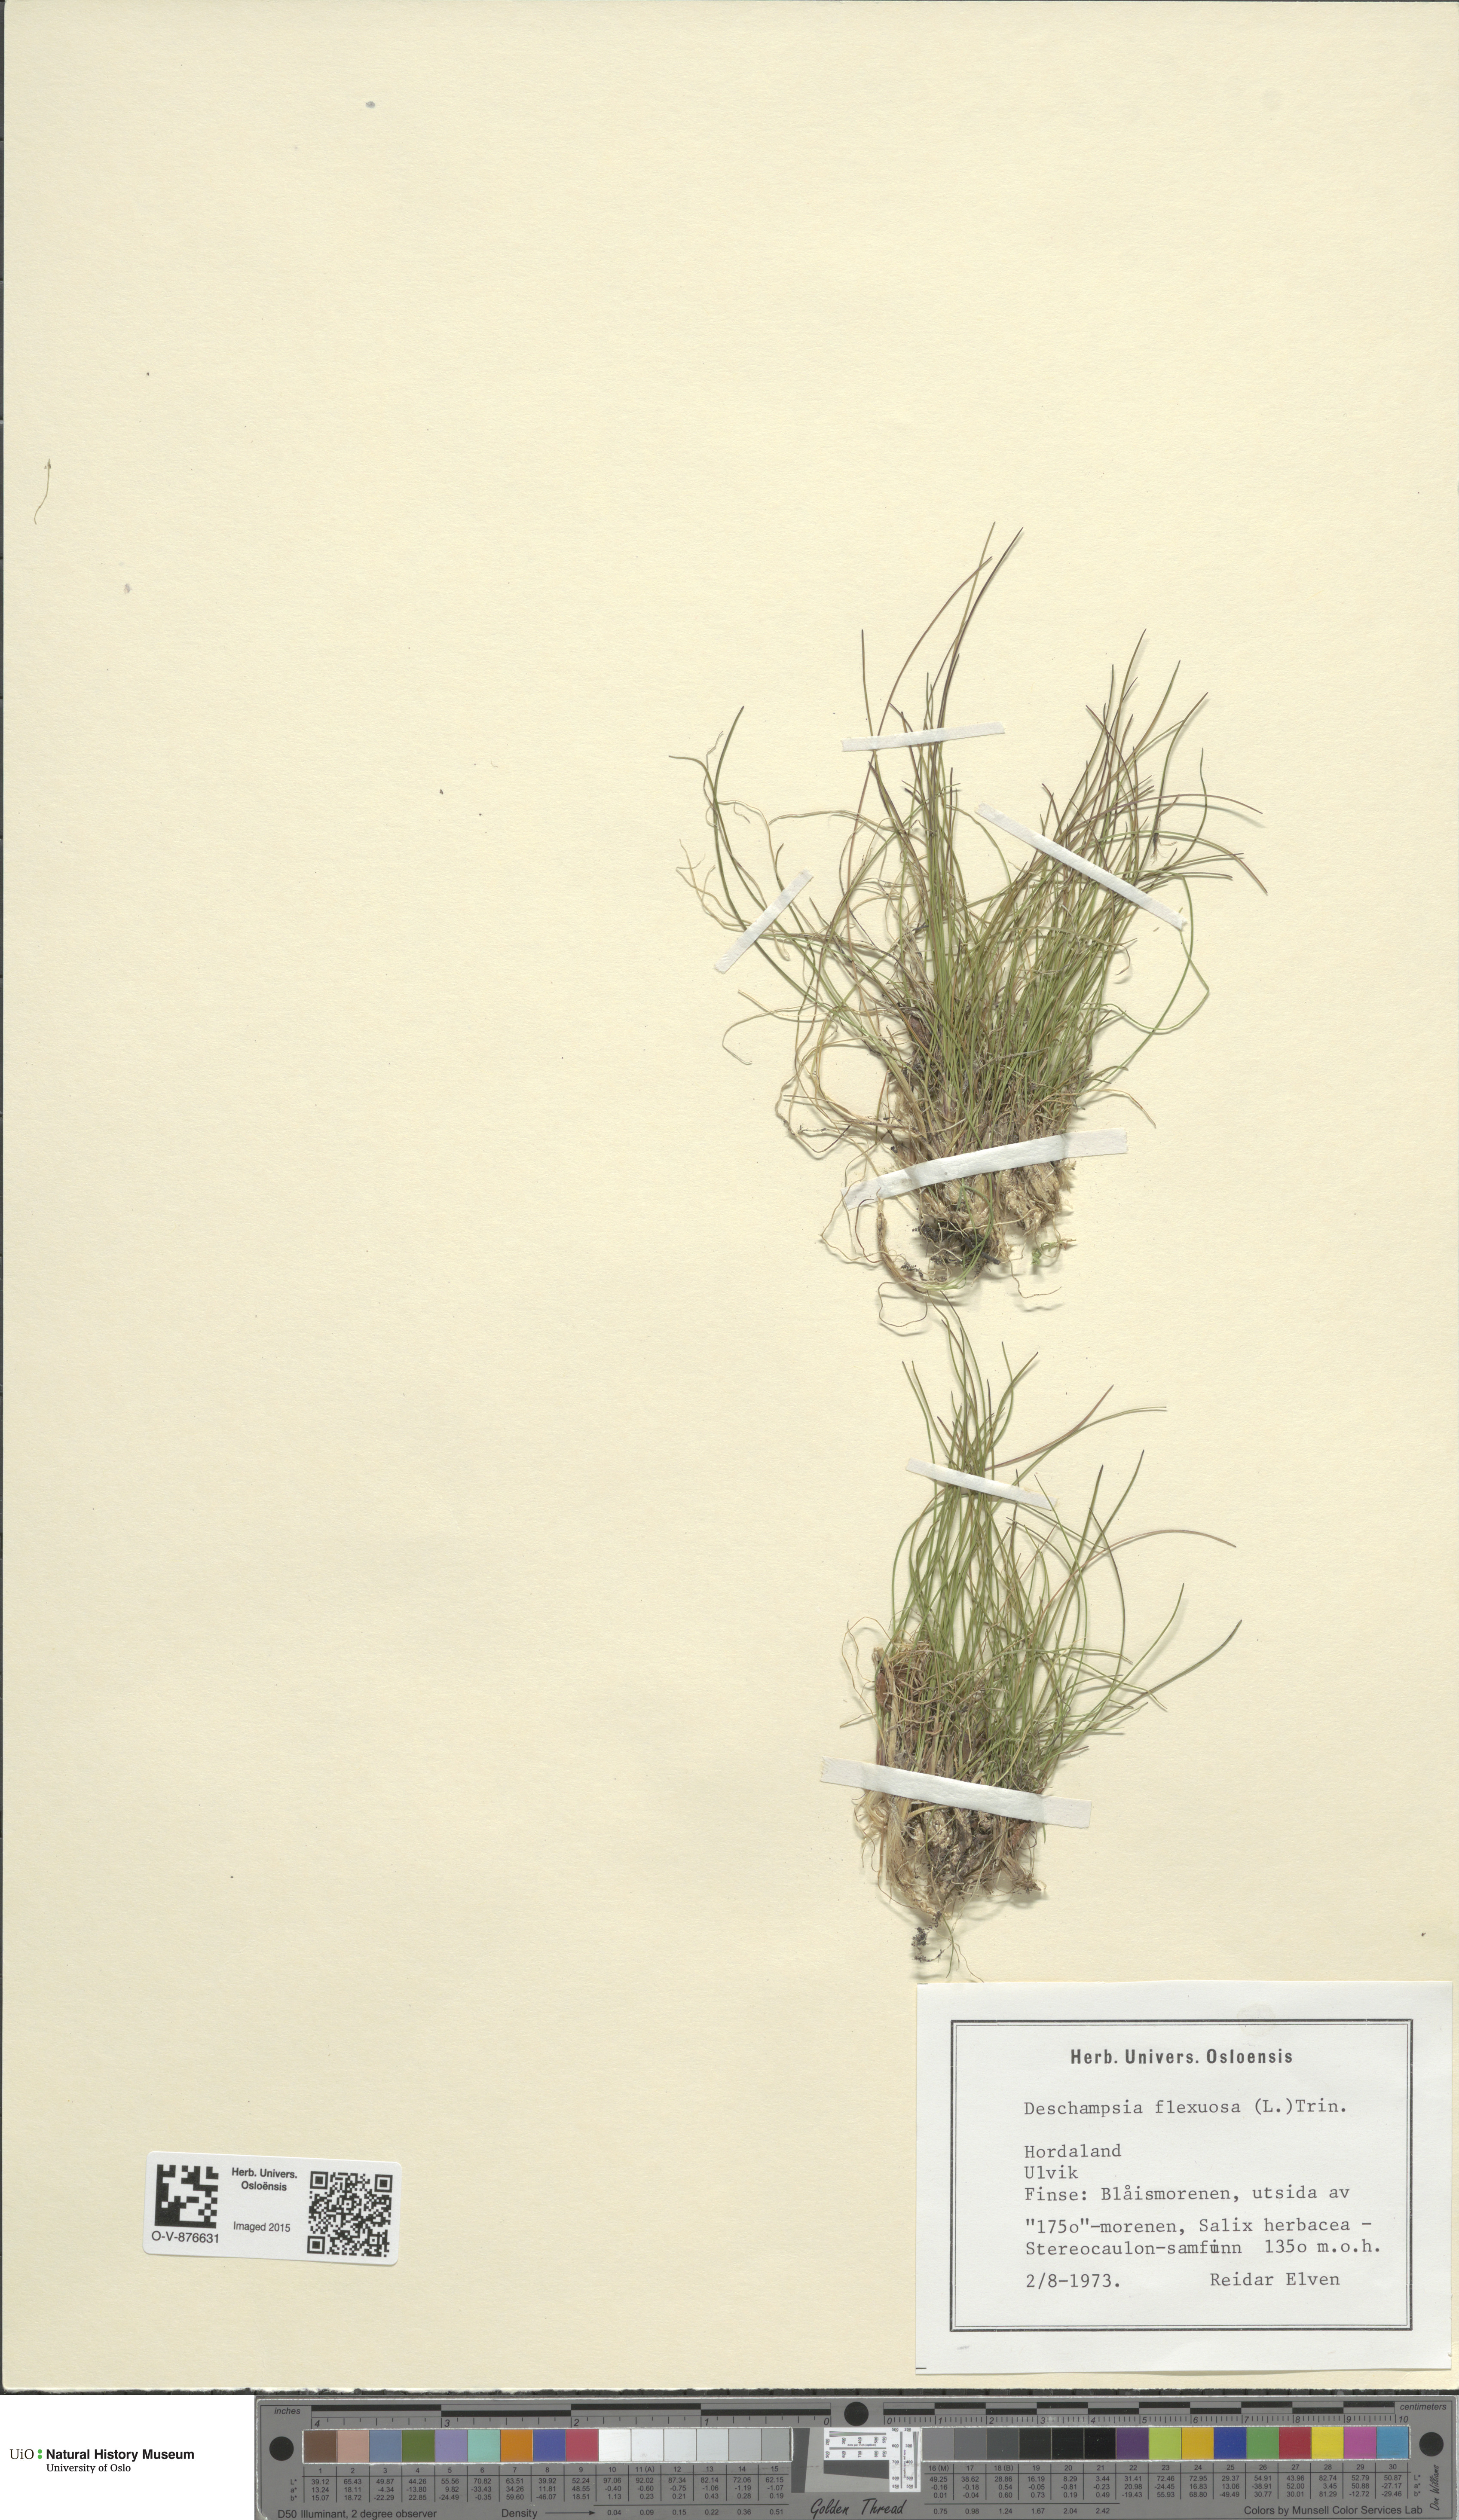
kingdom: Plantae
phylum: Tracheophyta
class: Liliopsida
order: Poales
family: Poaceae
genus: Avenella
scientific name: Avenella flexuosa
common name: Wavy hairgrass
